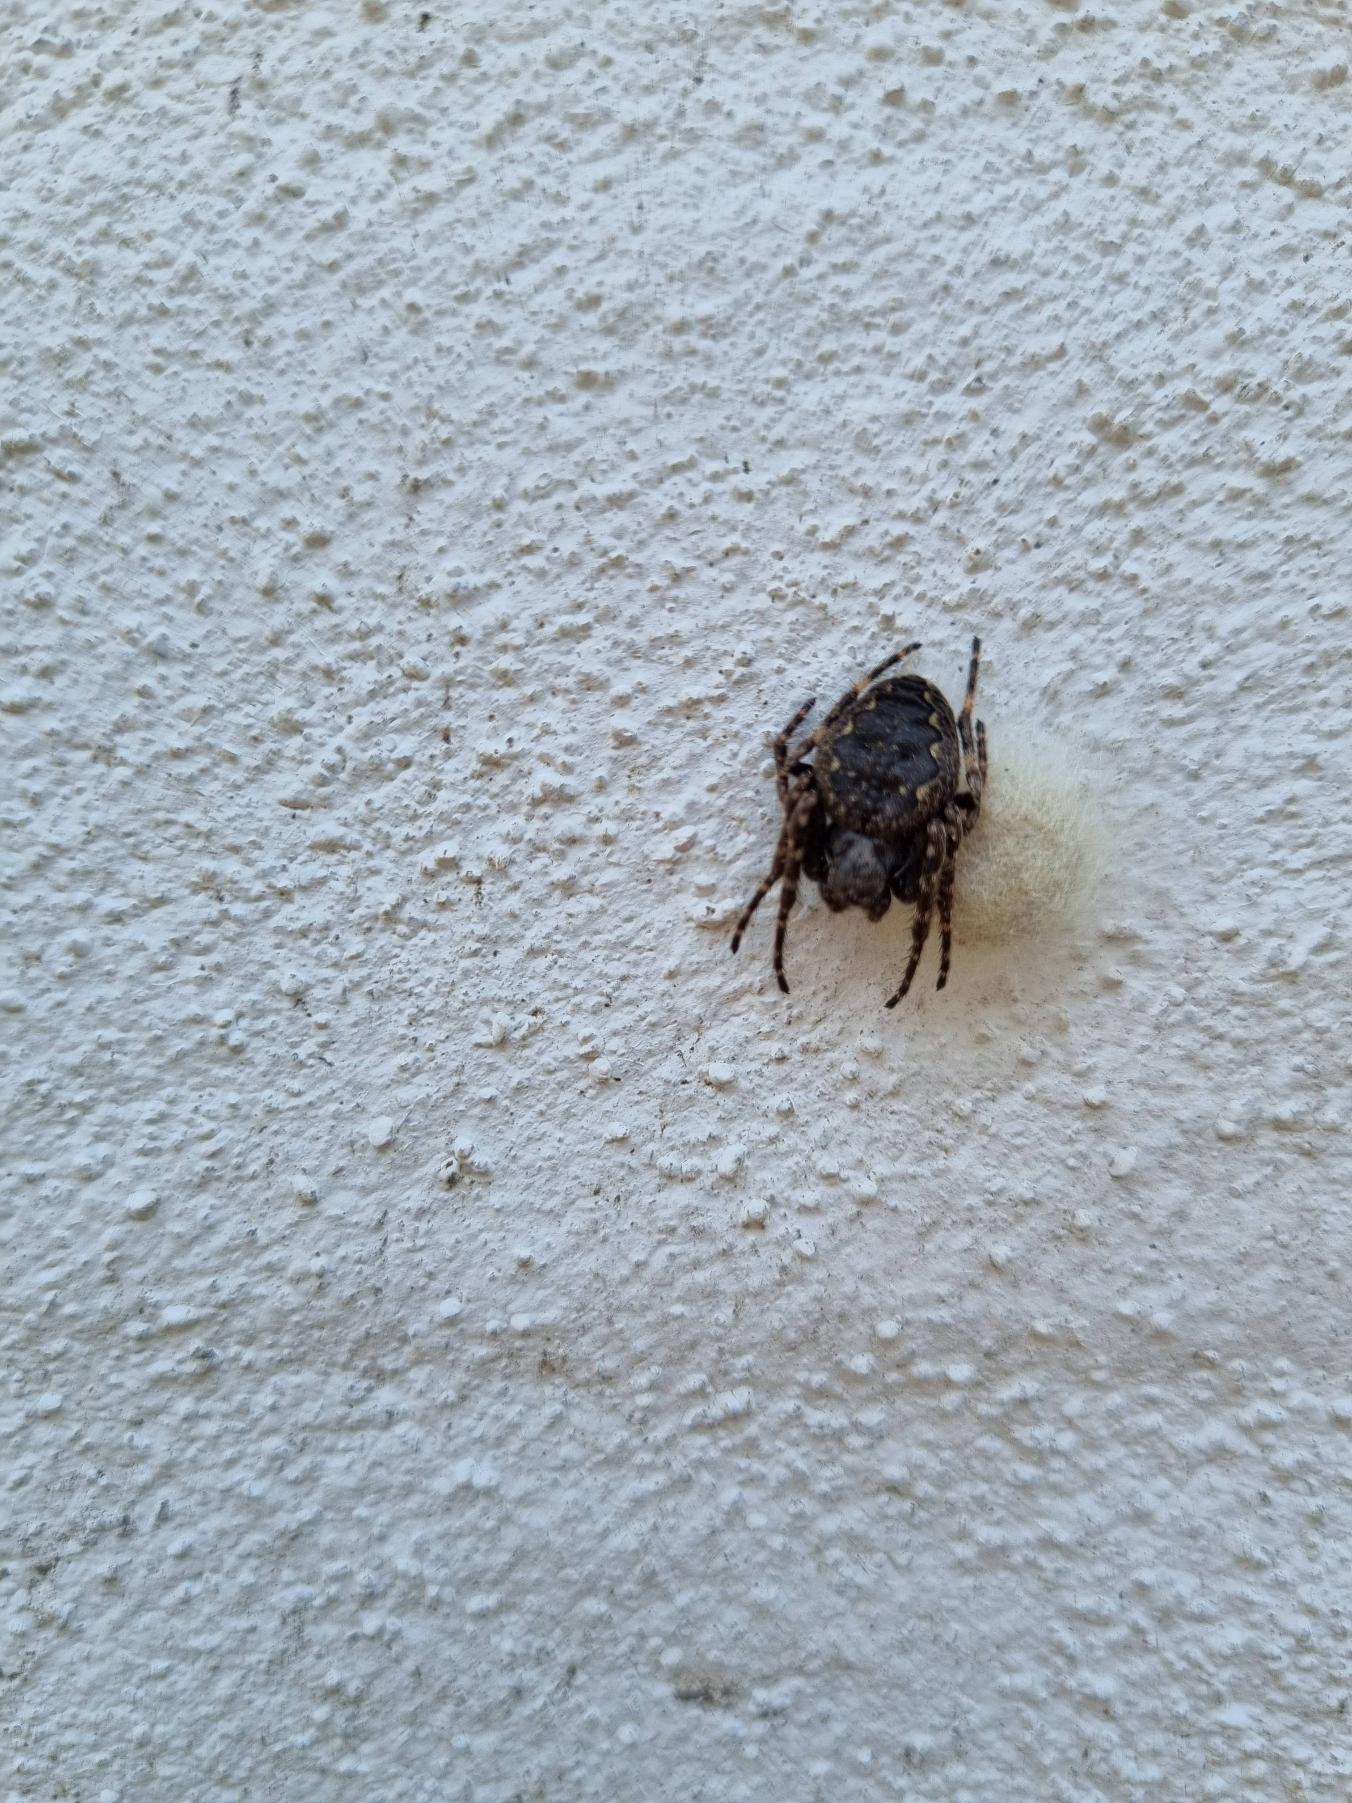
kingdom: Animalia
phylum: Arthropoda
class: Arachnida
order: Araneae
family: Araneidae
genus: Nuctenea
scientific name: Nuctenea umbratica
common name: Flad hjulspinder
